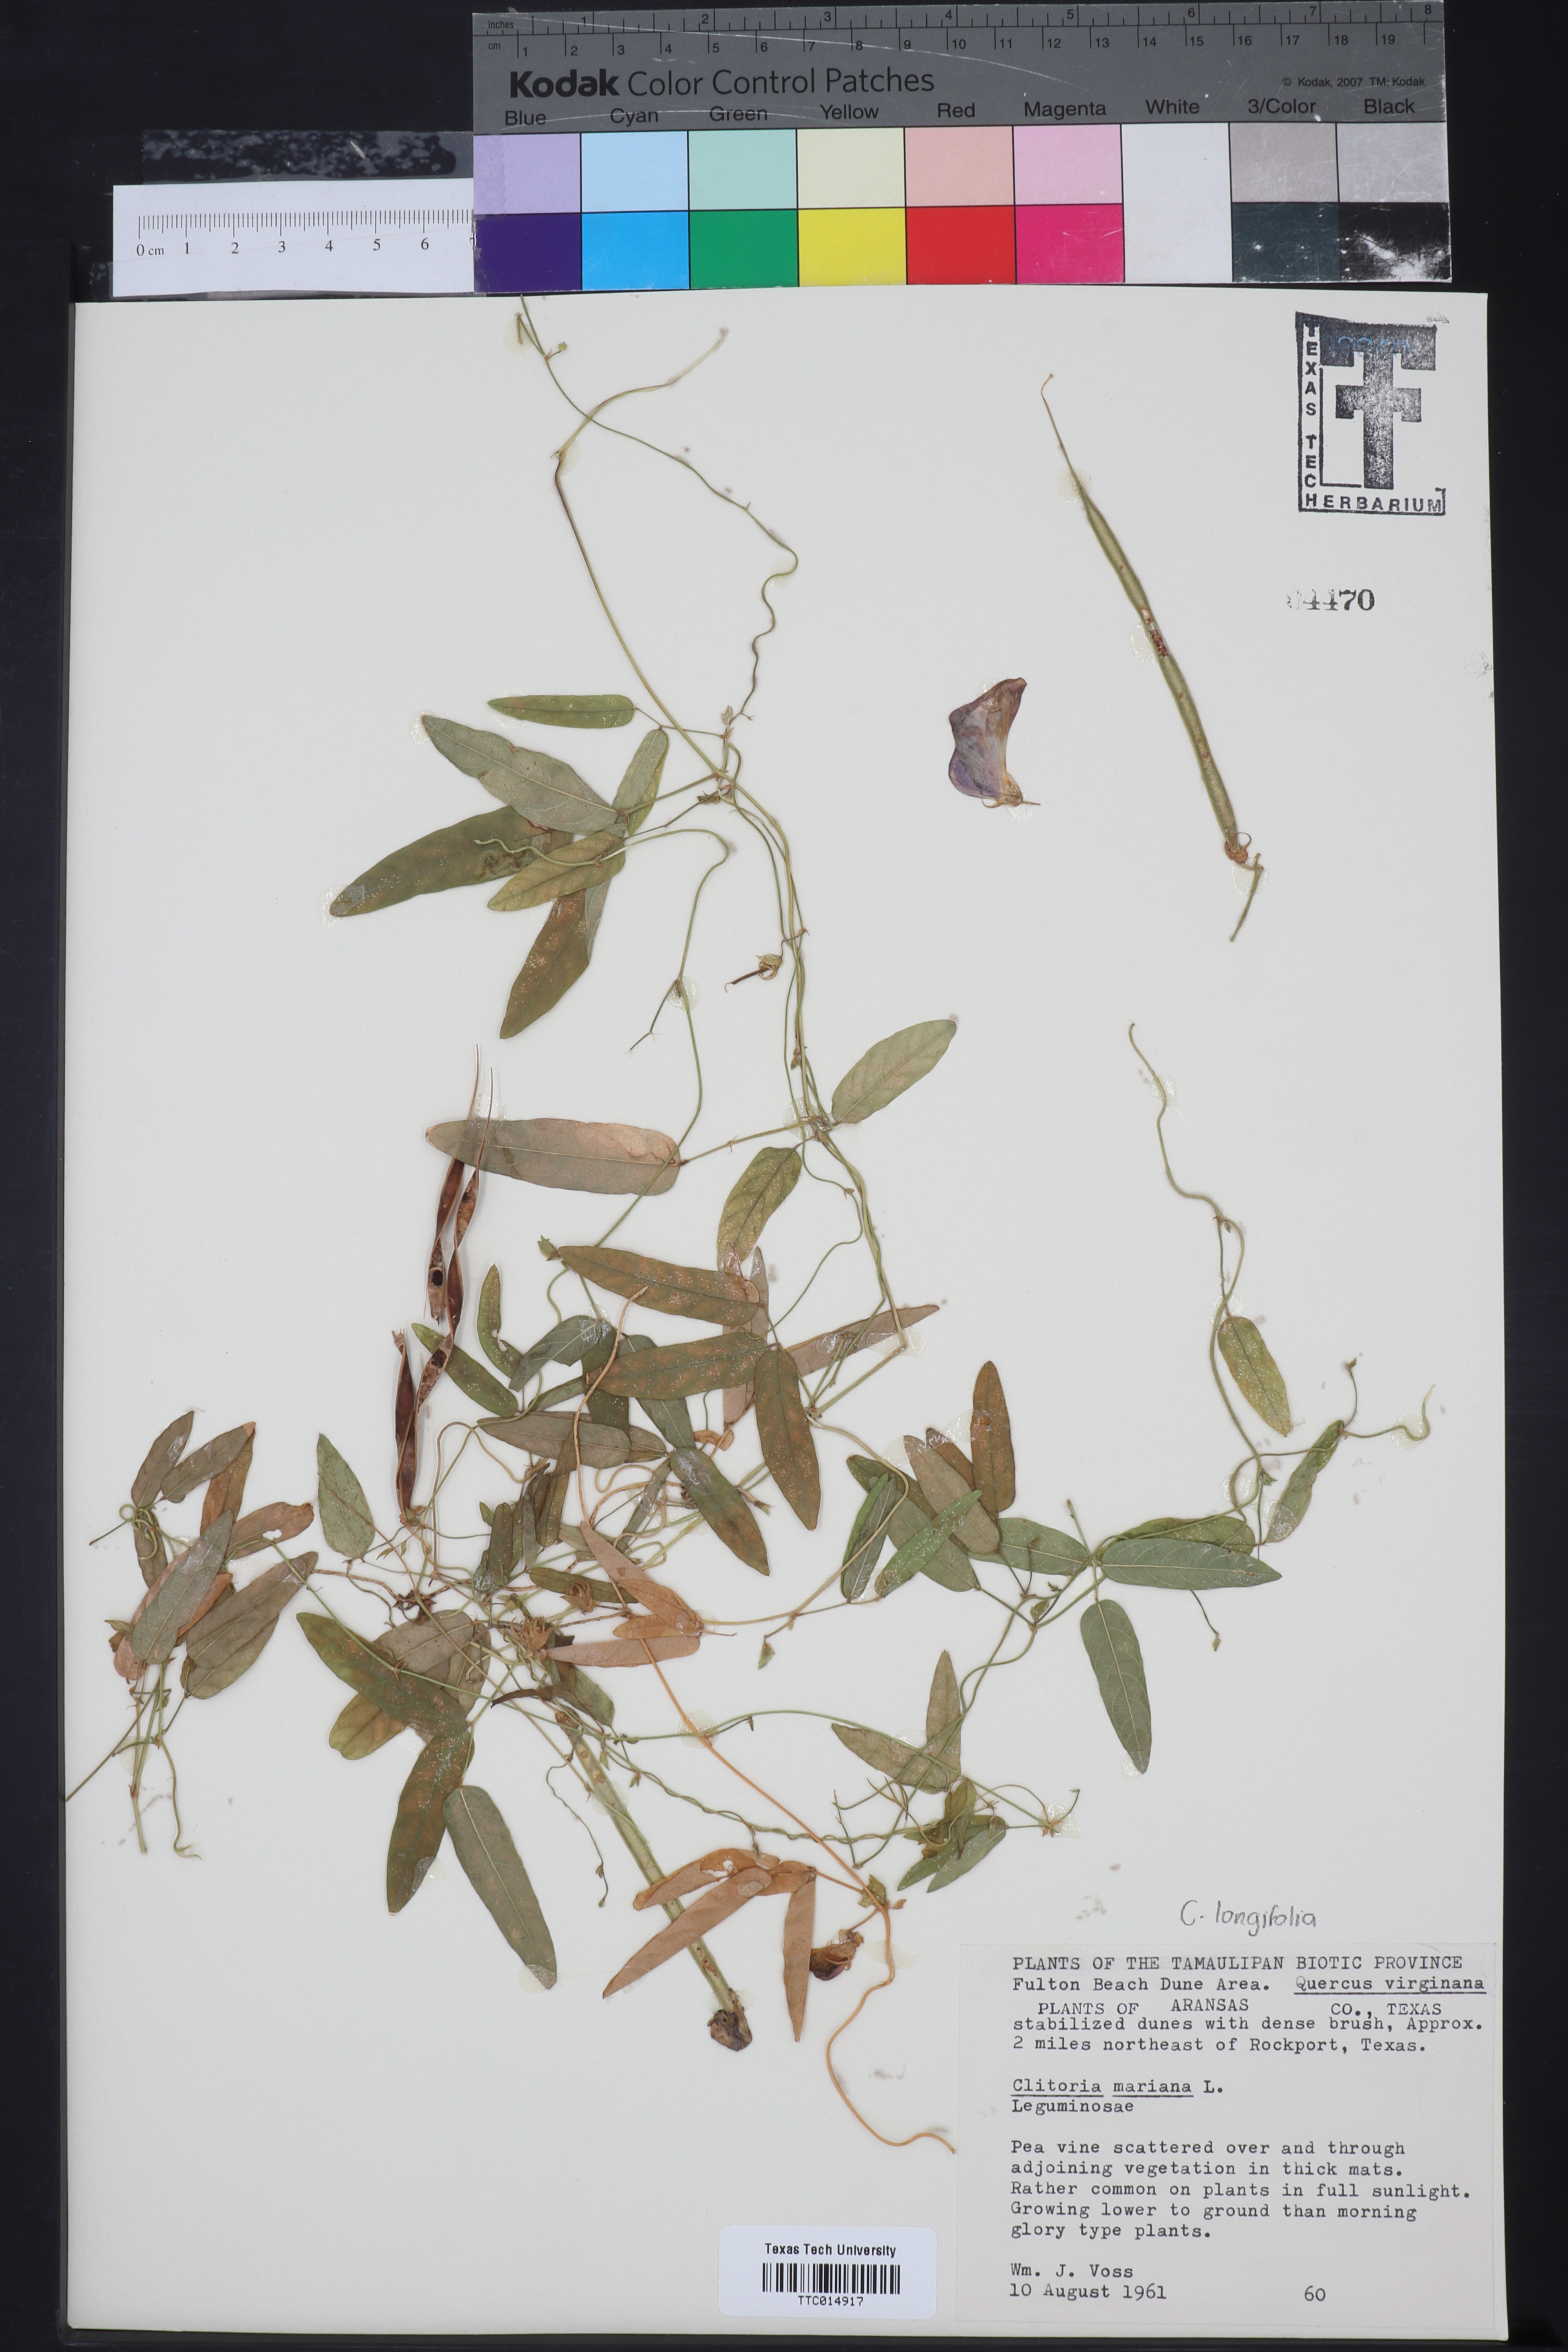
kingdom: Plantae
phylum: Tracheophyta
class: Magnoliopsida
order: Fabales
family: Fabaceae
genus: Clitoria
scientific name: Clitoria mariana
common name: Butterfly-pea
